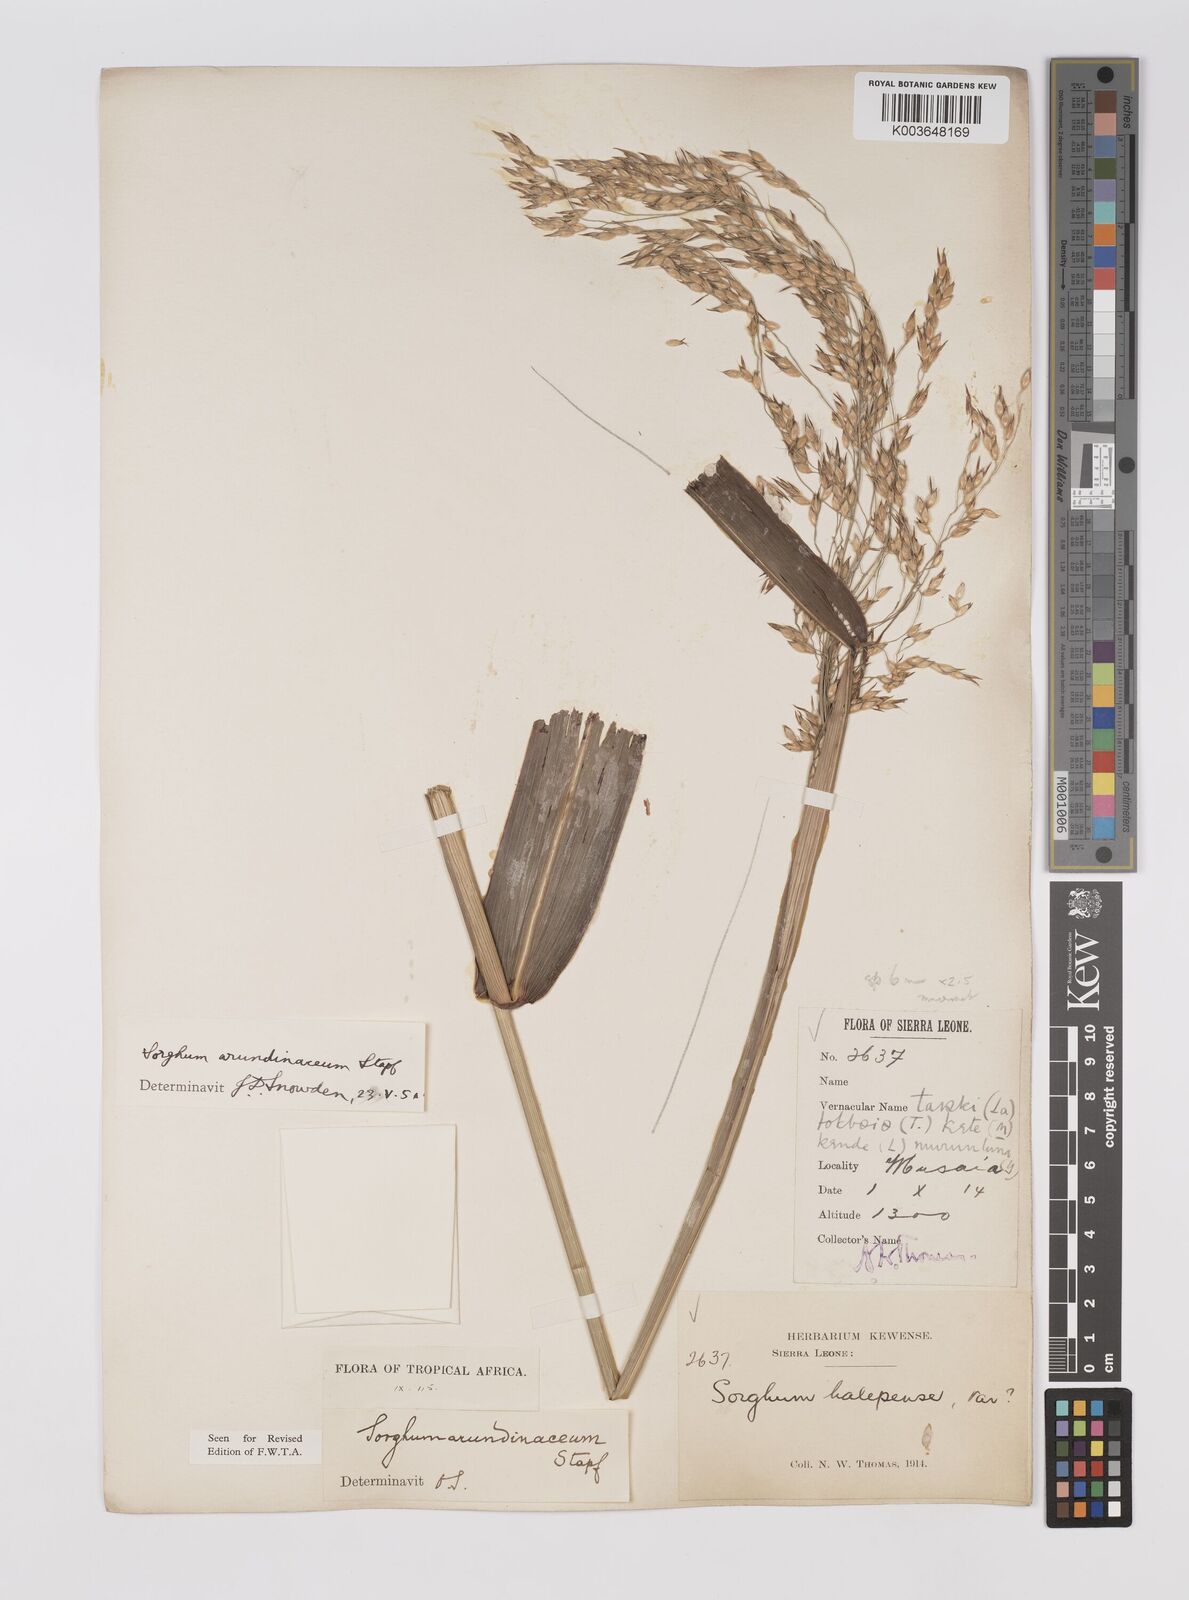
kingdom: Plantae
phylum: Tracheophyta
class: Liliopsida
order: Poales
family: Poaceae
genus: Sorghum
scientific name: Sorghum arundinaceum
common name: Sorghum
